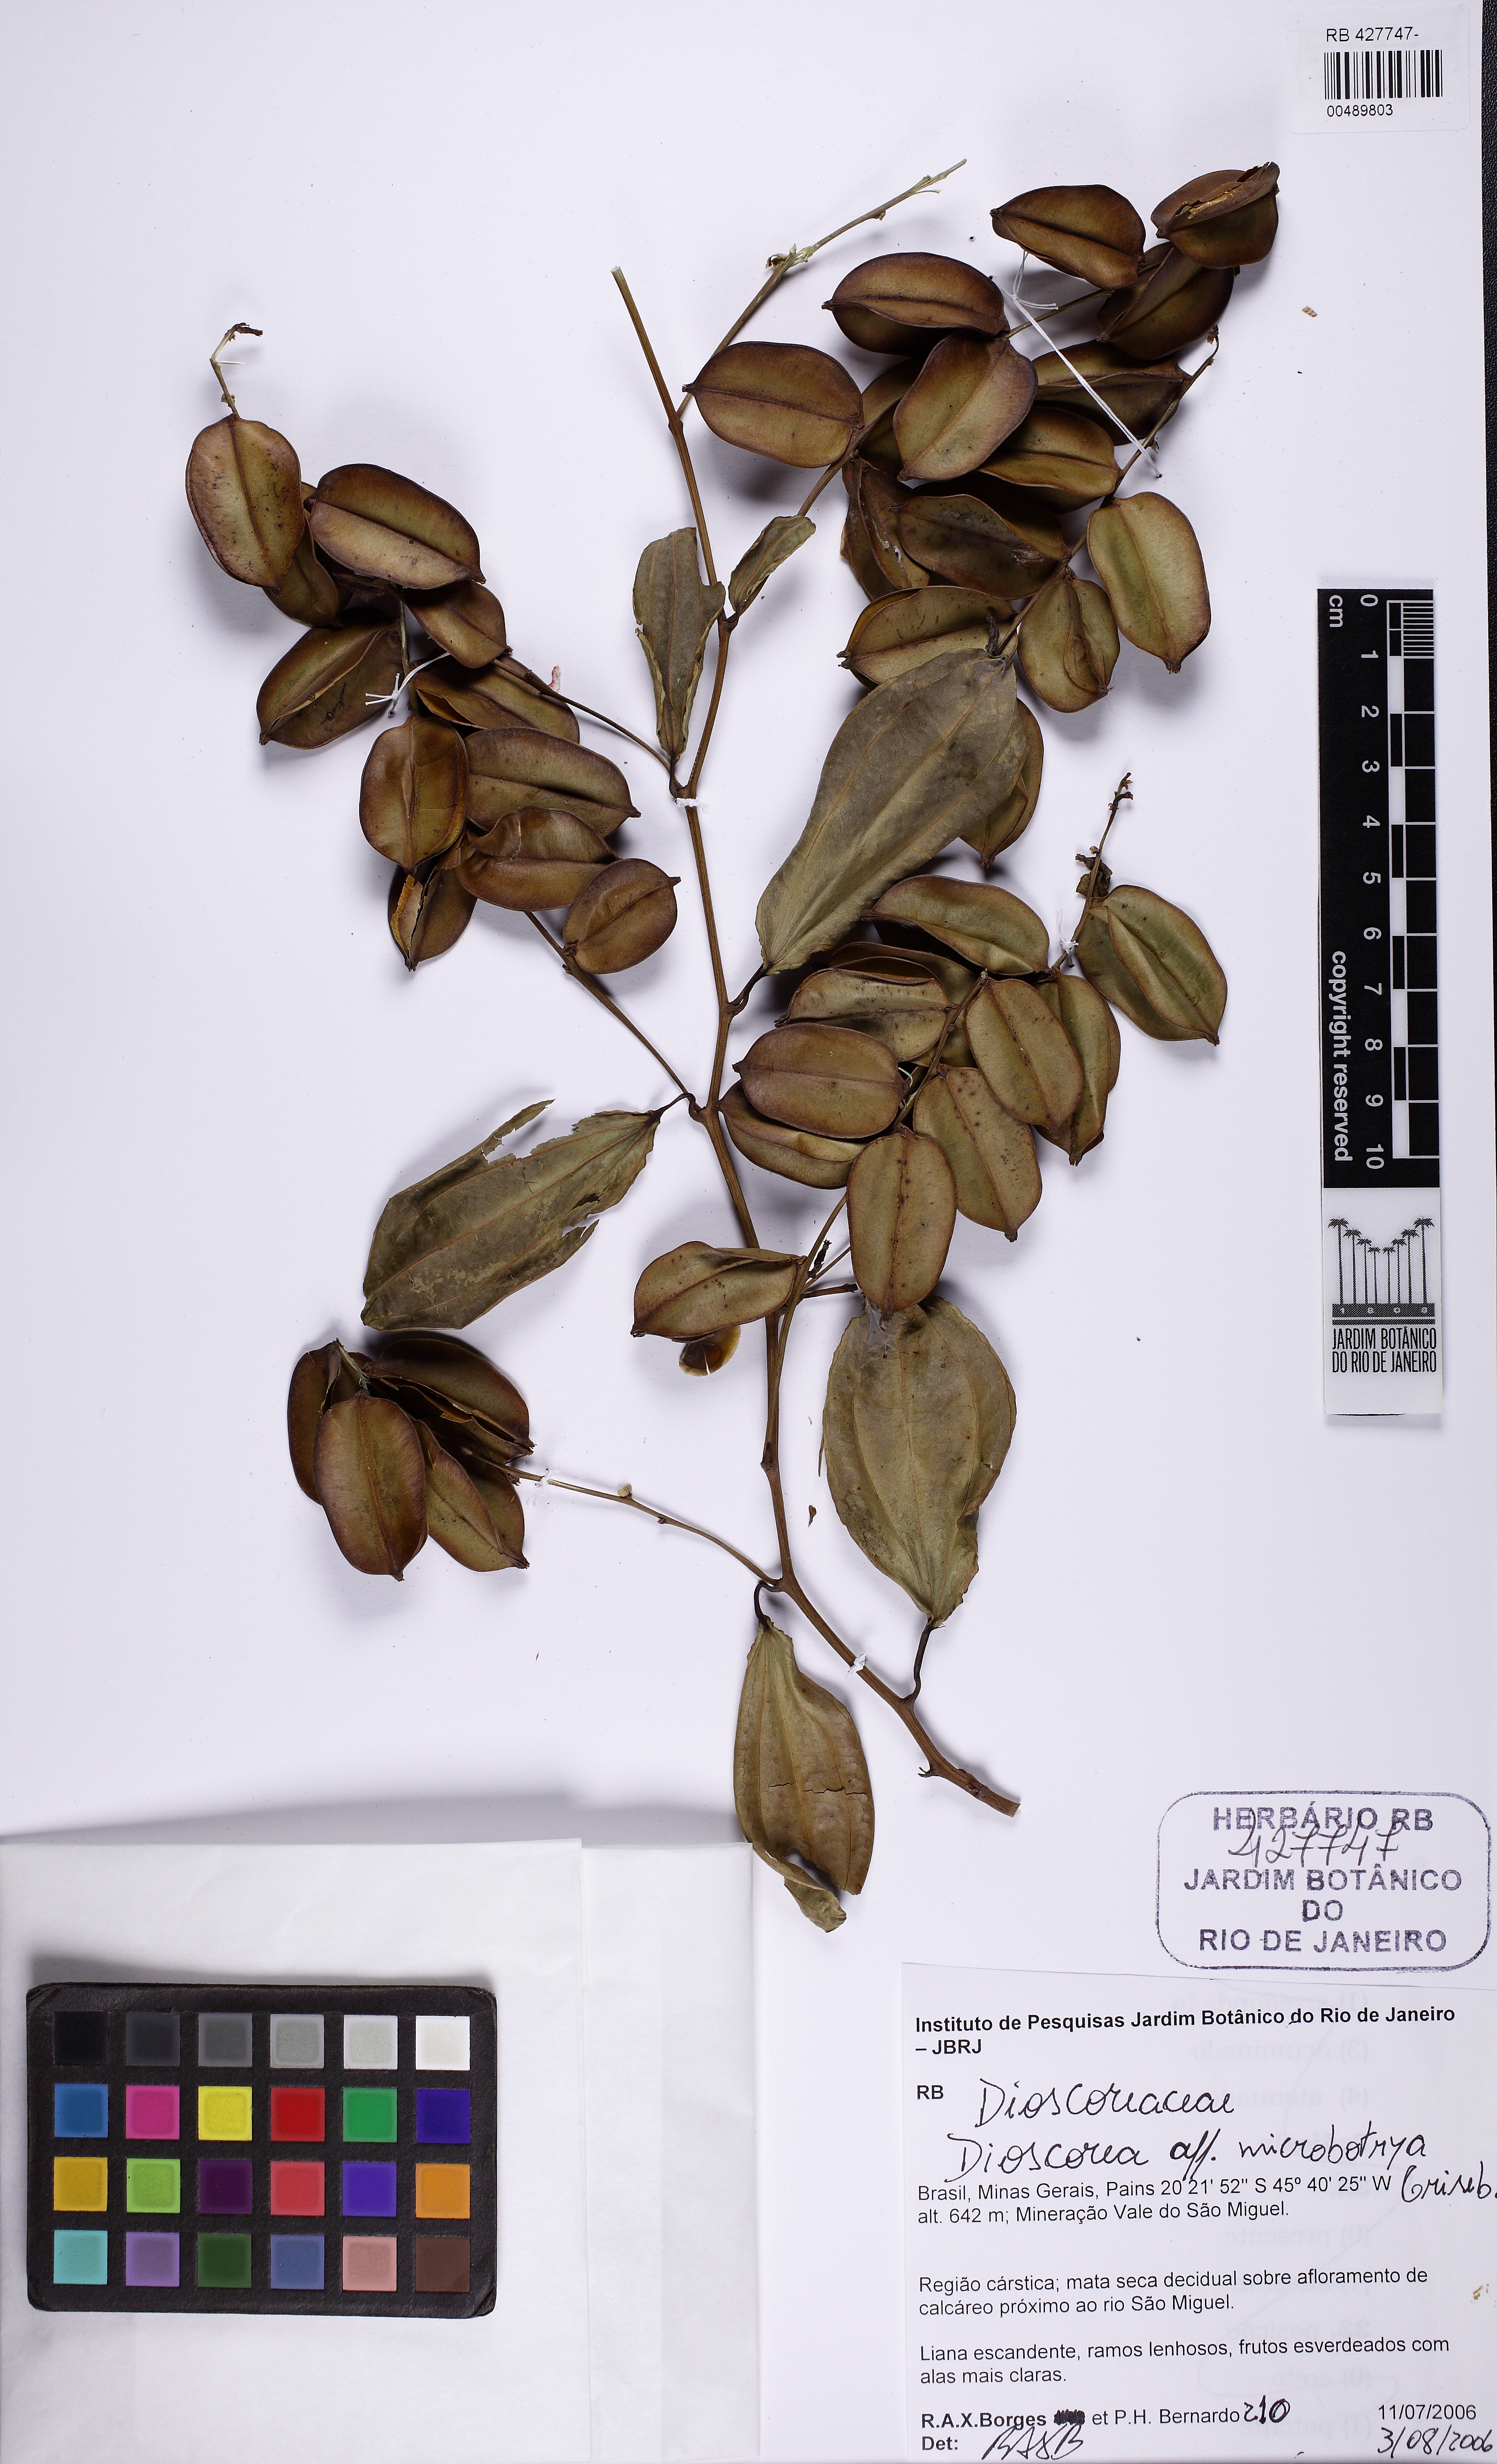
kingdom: Plantae
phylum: Tracheophyta
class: Liliopsida
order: Dioscoreales
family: Dioscoreaceae
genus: Dioscorea
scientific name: Dioscorea multiflora
